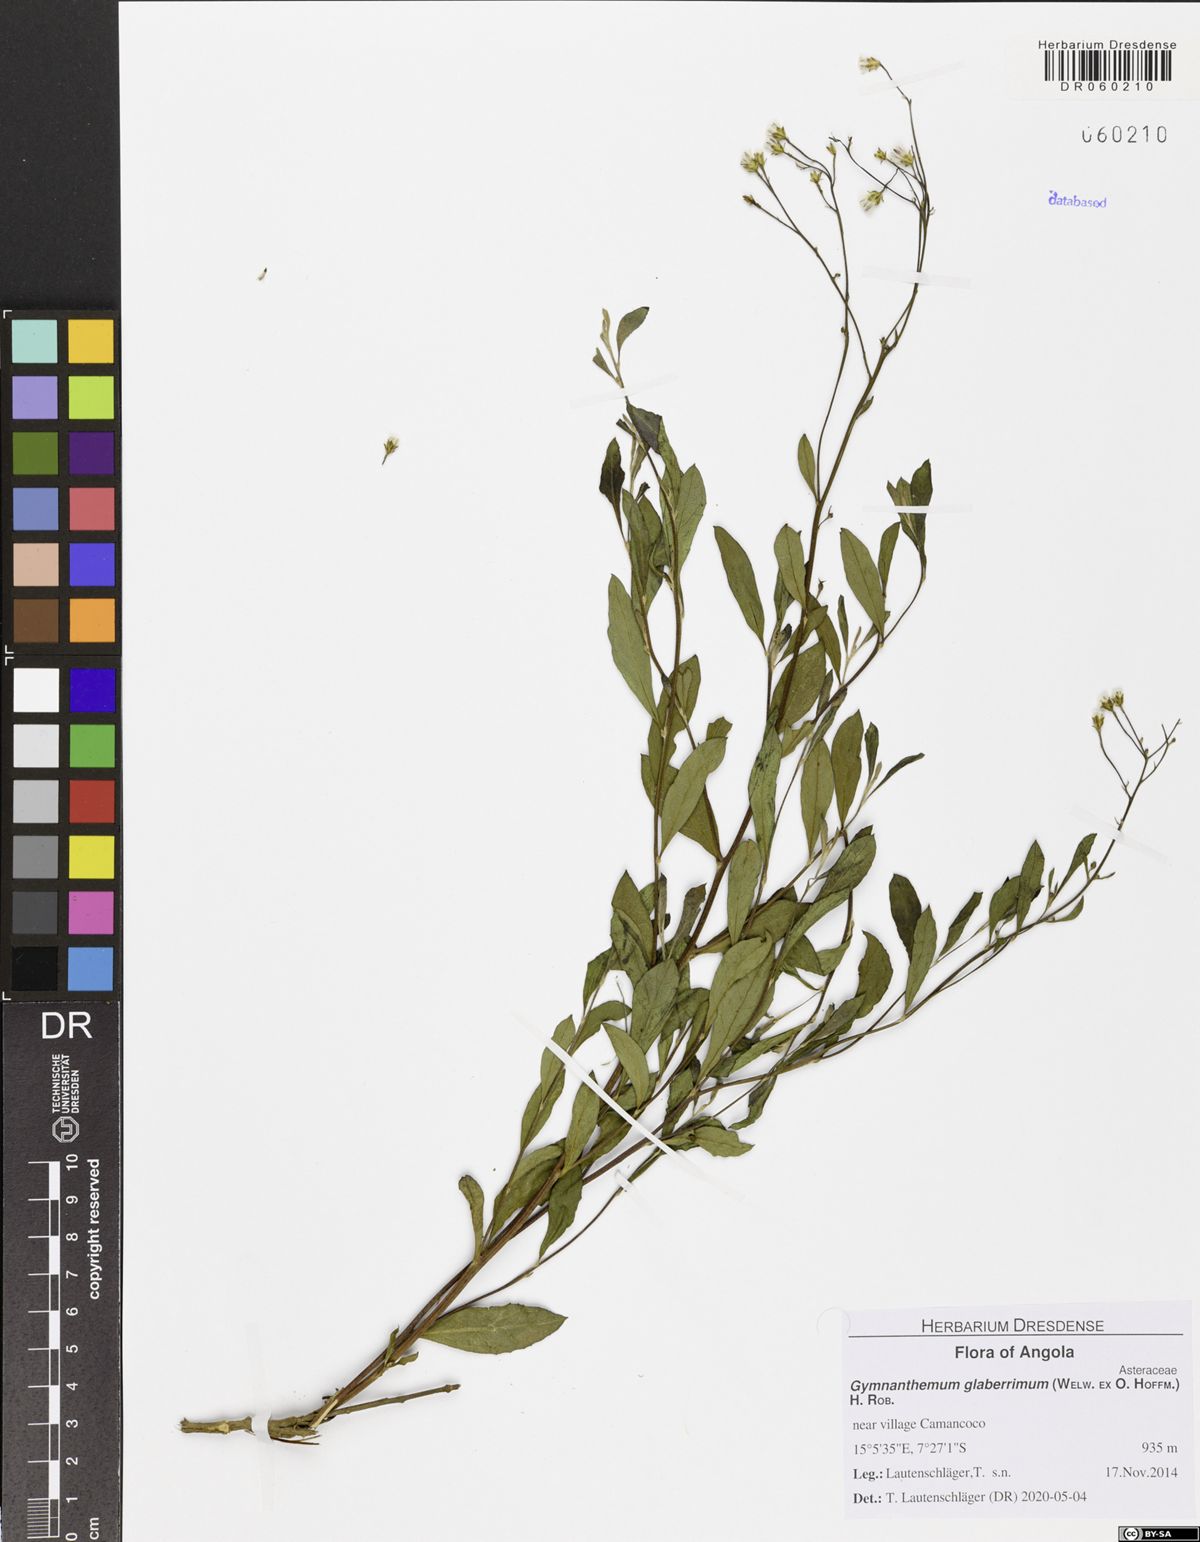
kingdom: Plantae
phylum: Tracheophyta
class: Magnoliopsida
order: Asterales
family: Asteraceae
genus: Gymnanthemum
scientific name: Gymnanthemum glaberrimum
